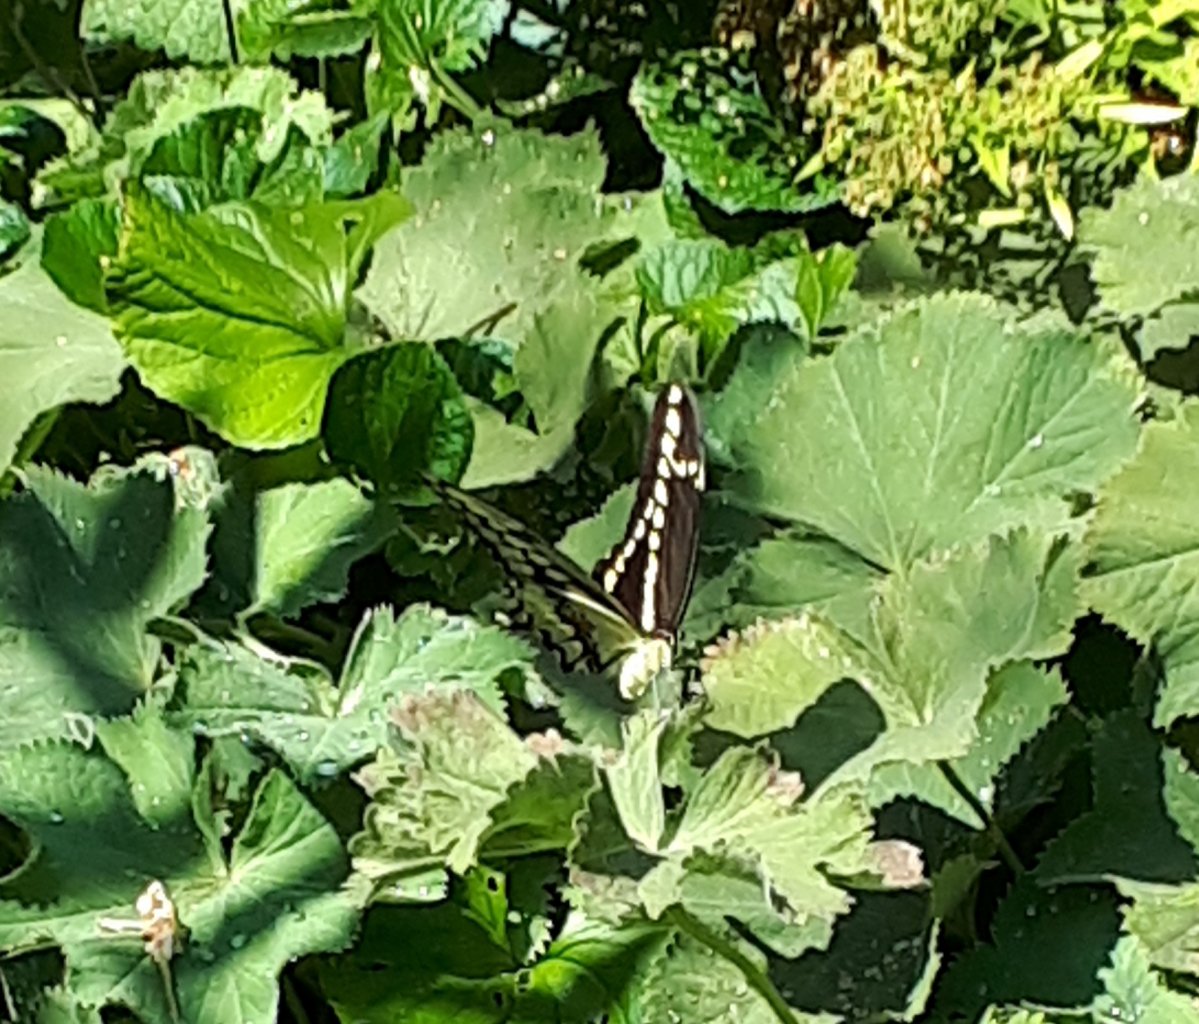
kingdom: Animalia
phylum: Arthropoda
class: Insecta
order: Lepidoptera
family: Papilionidae
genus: Papilio
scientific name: Papilio cresphontes
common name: Eastern Giant Swallowtail
